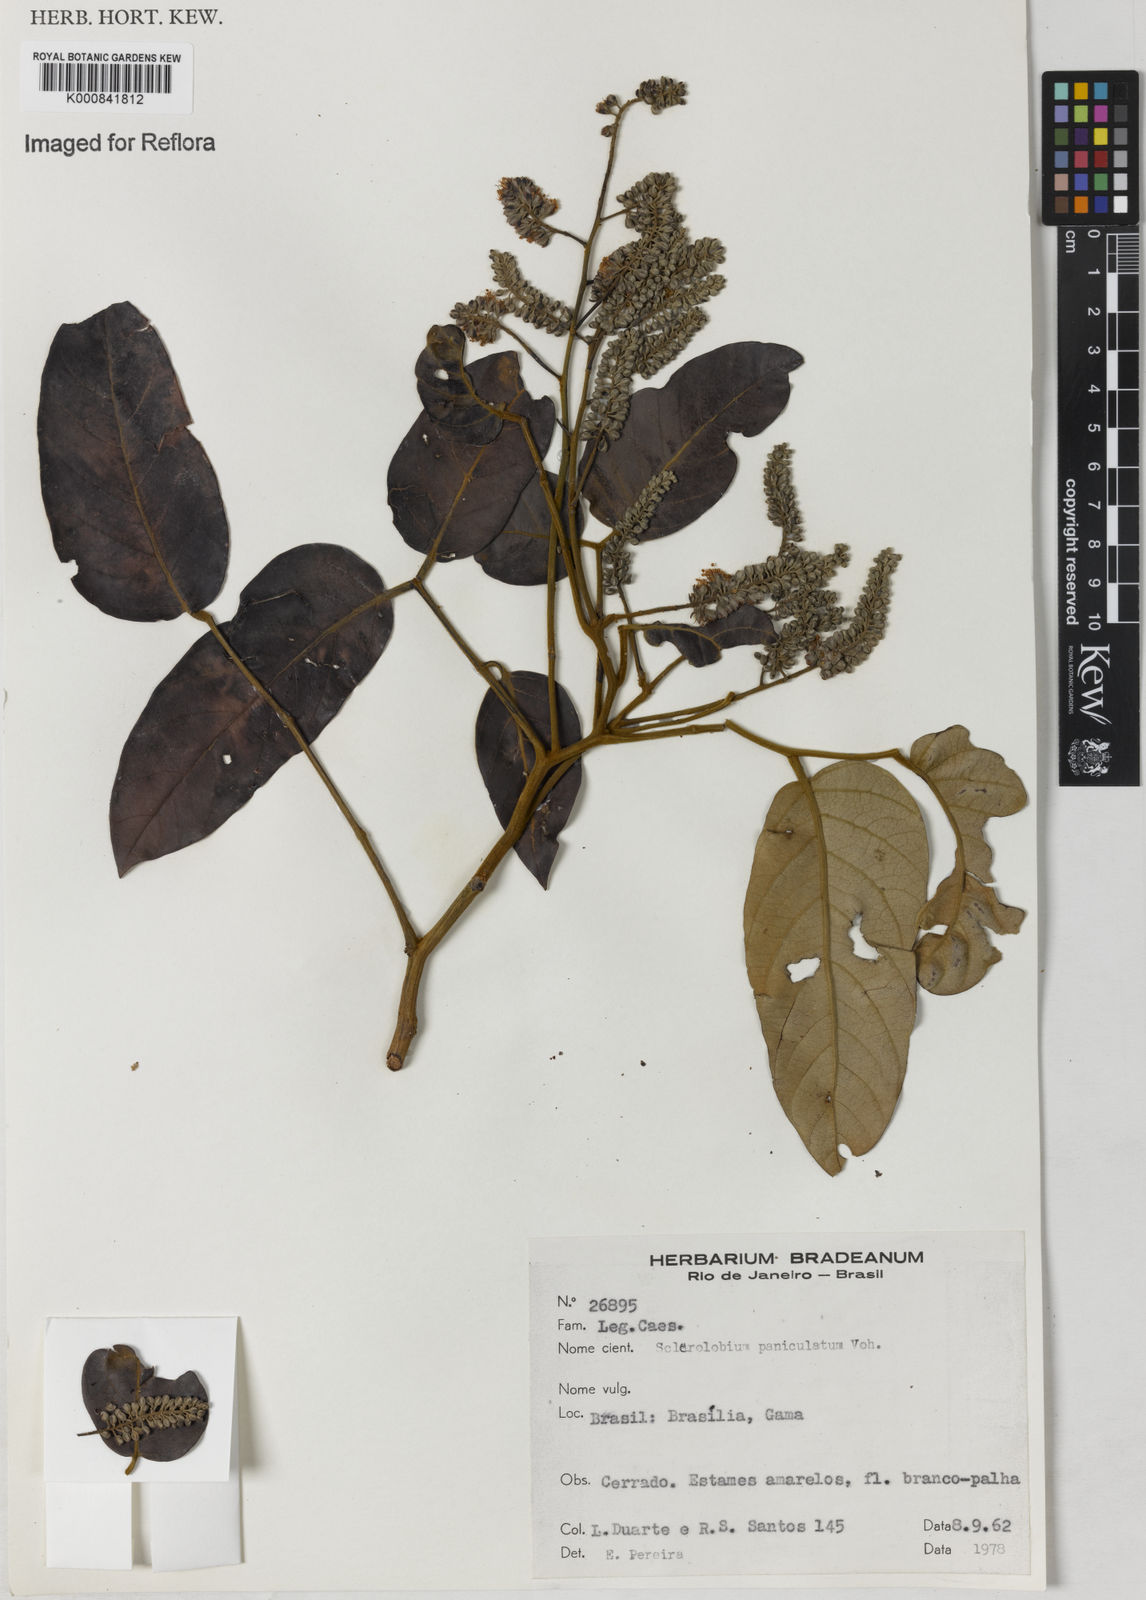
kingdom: Plantae
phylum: Tracheophyta
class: Magnoliopsida
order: Fabales
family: Fabaceae
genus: Tachigali
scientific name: Tachigali subvelutina
